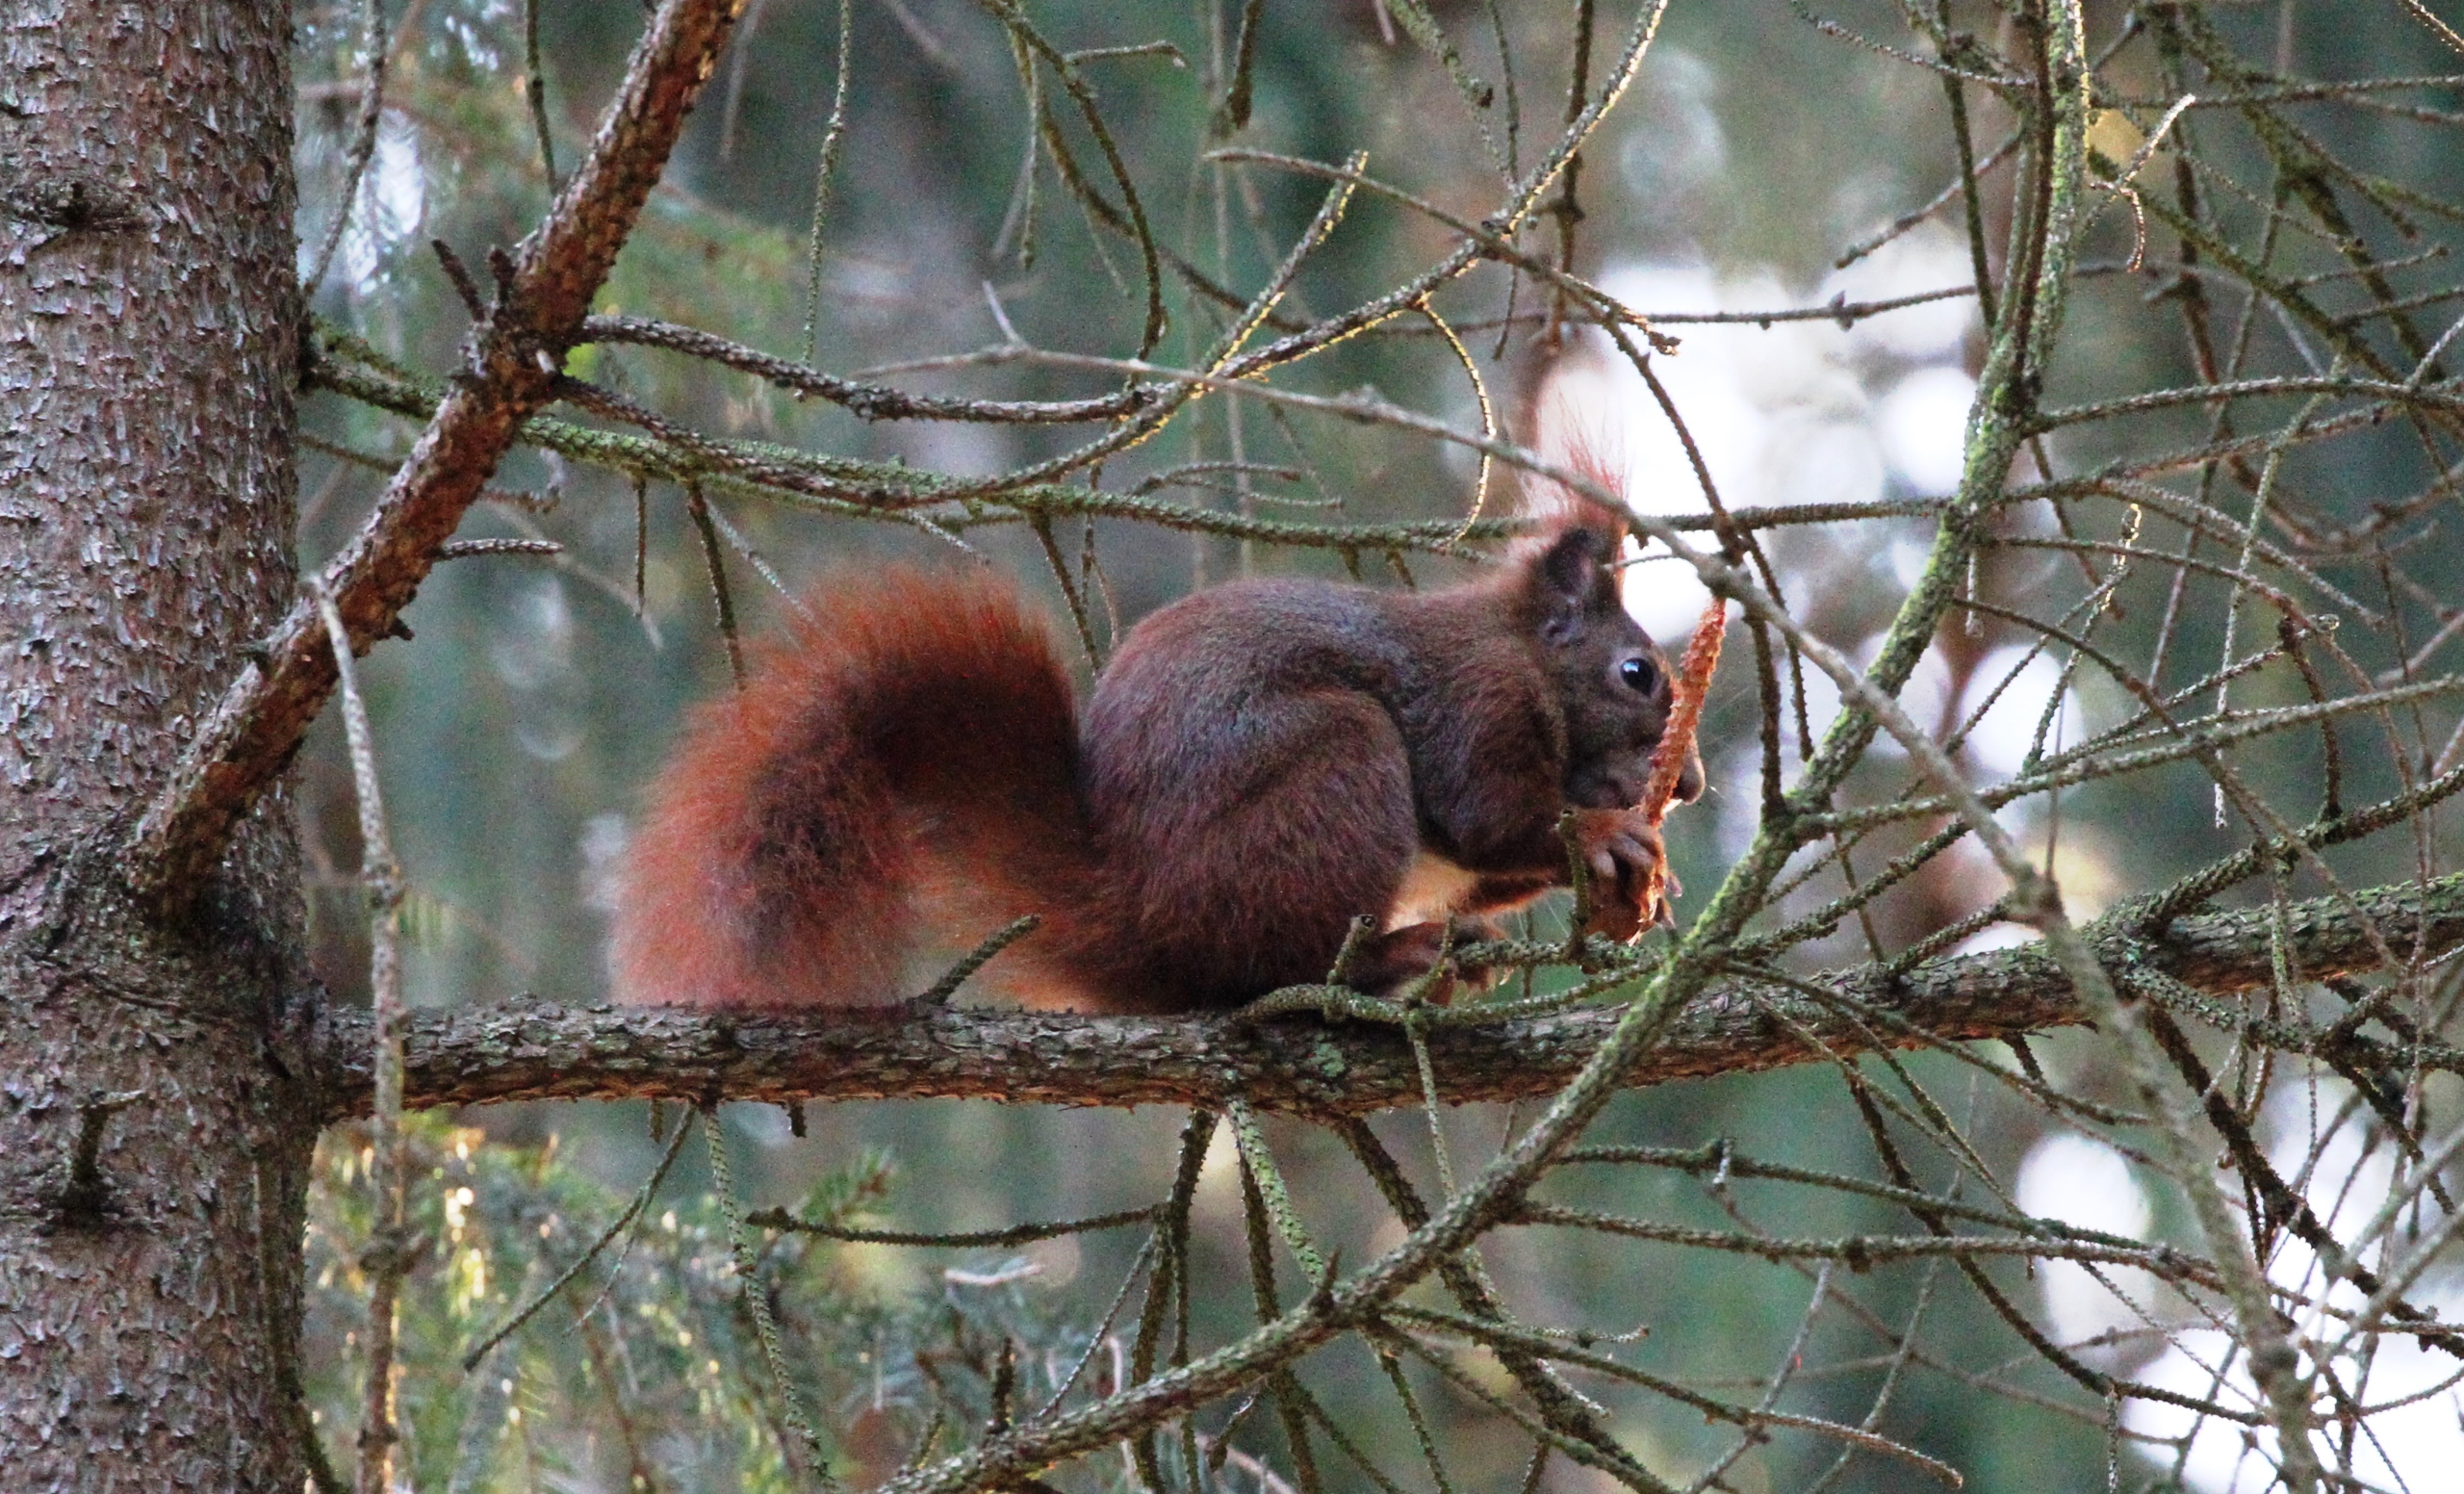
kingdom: Animalia
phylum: Chordata
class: Mammalia
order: Rodentia
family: Sciuridae
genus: Sciurus
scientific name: Sciurus vulgaris
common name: Egern
